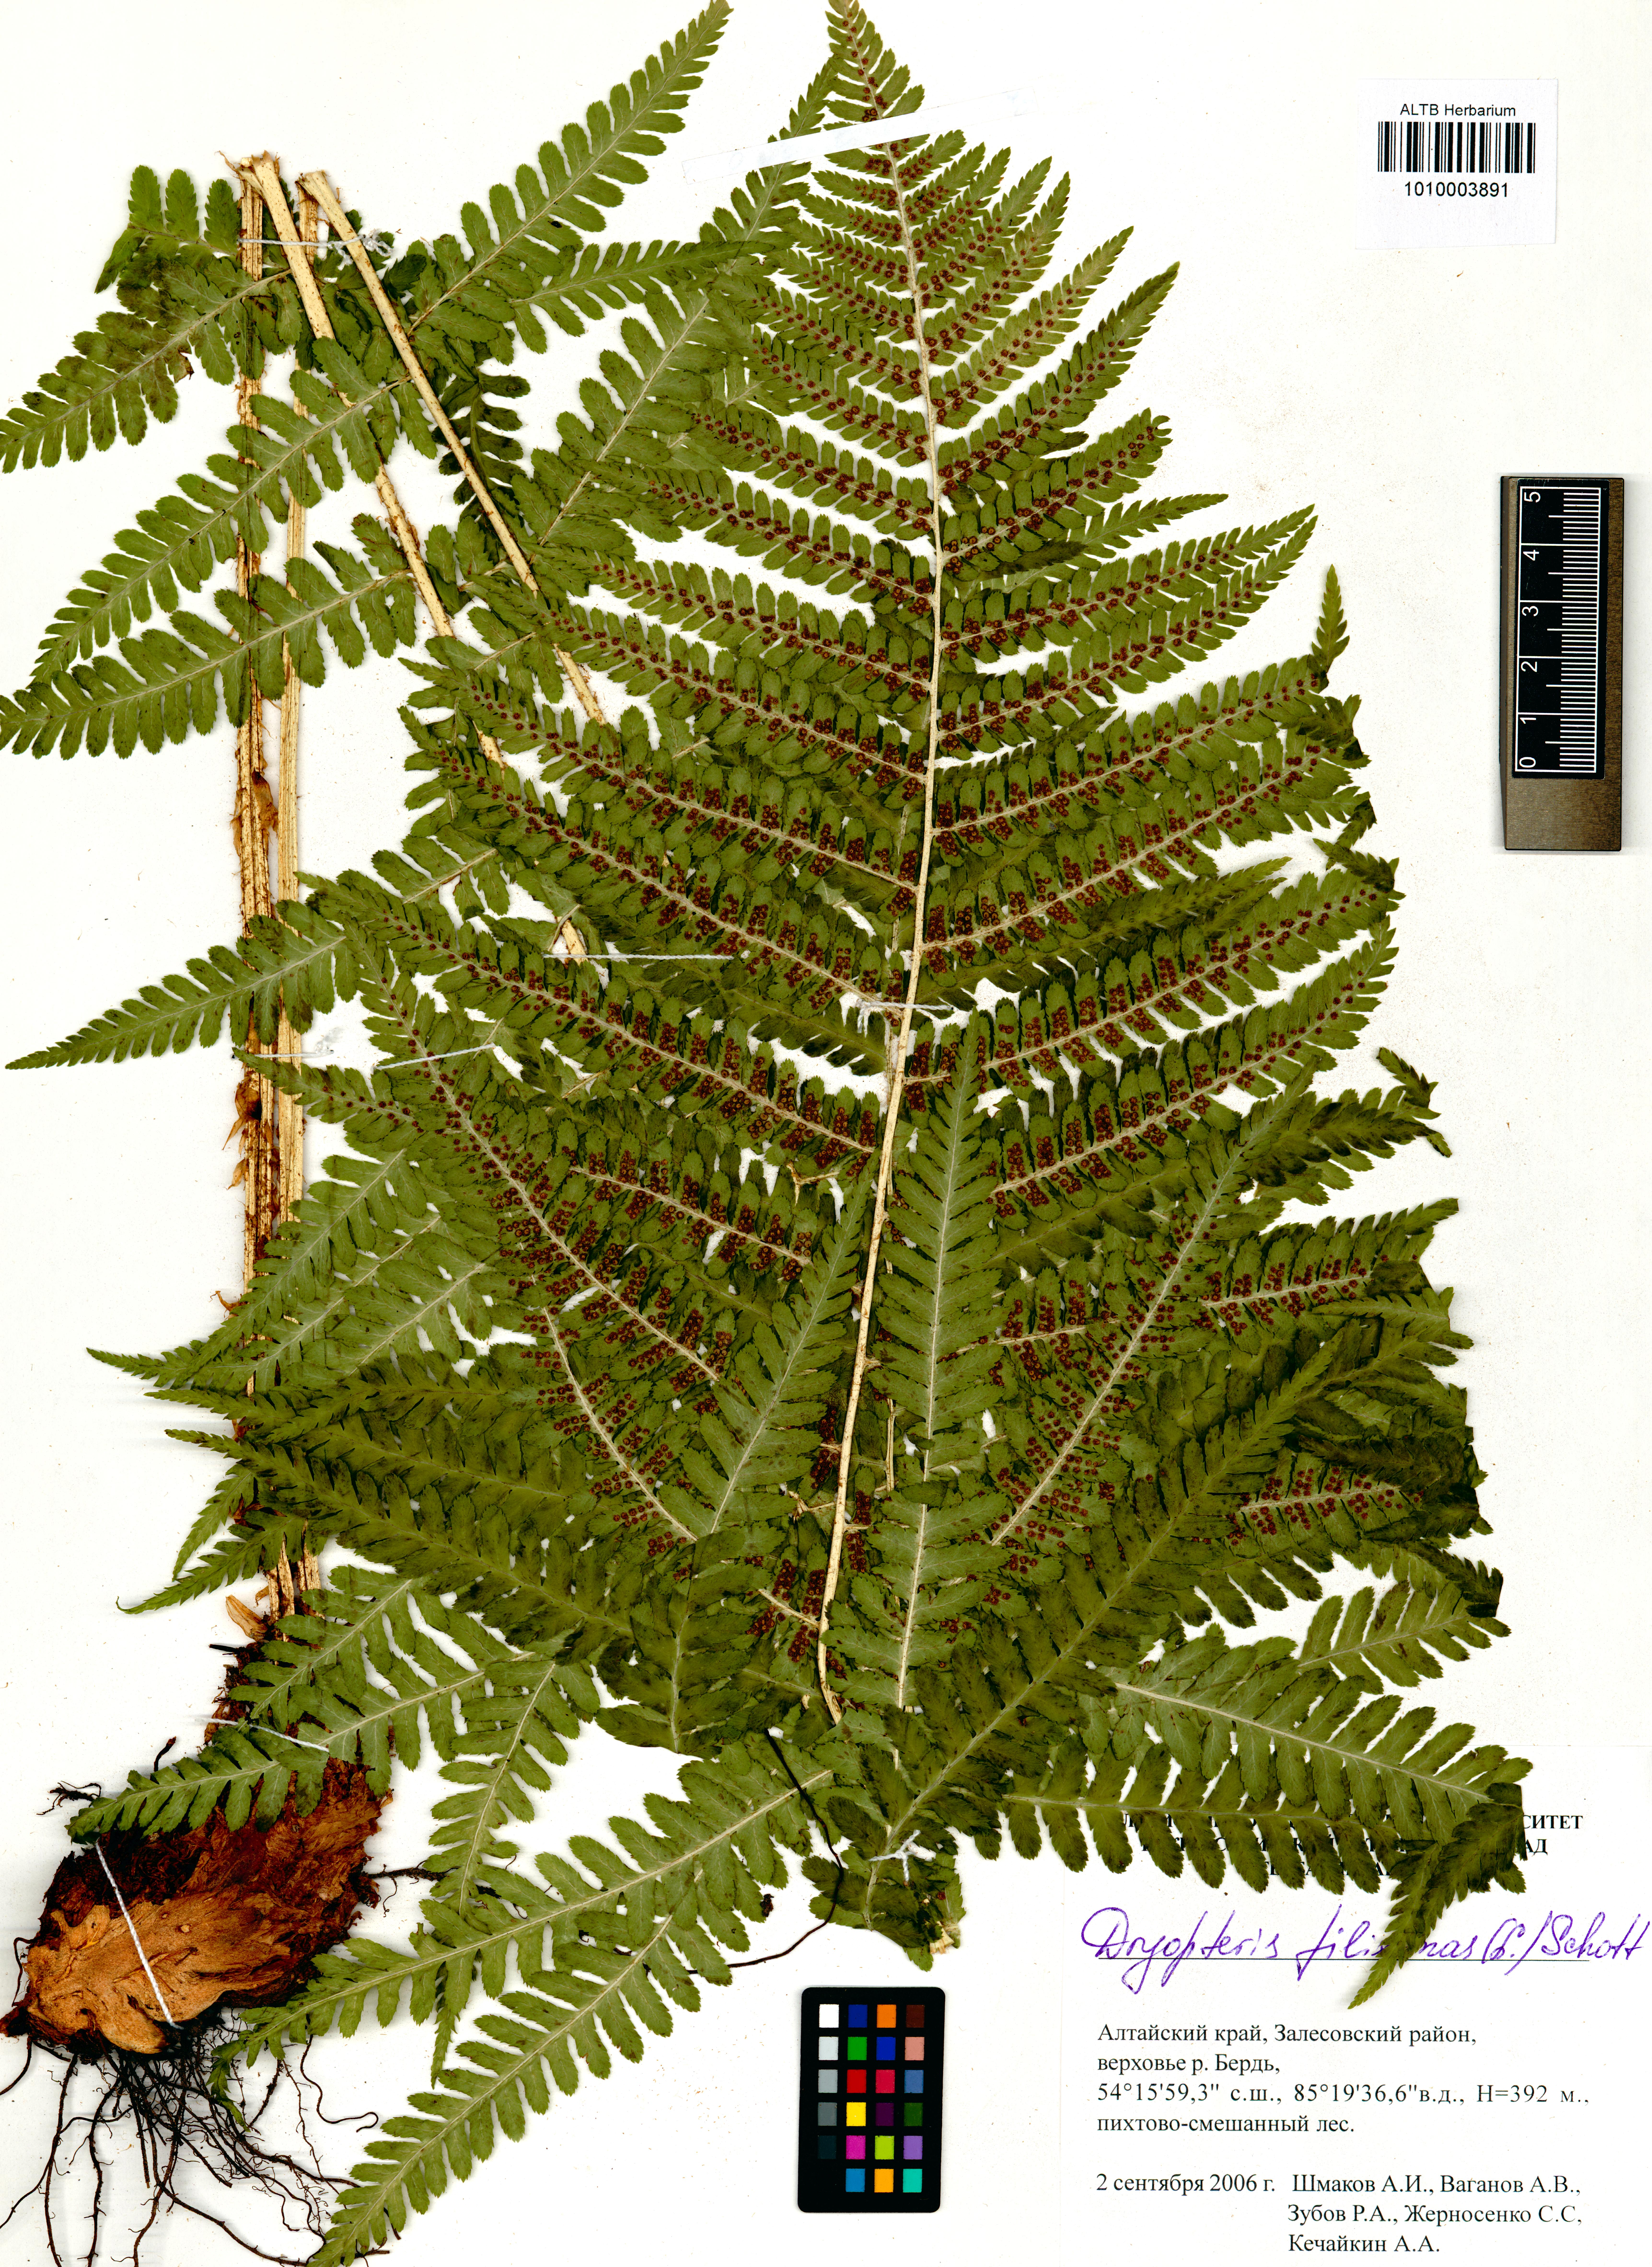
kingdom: Plantae
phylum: Tracheophyta
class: Polypodiopsida
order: Polypodiales
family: Dryopteridaceae
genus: Dryopteris
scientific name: Dryopteris filix-mas
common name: Male fern
